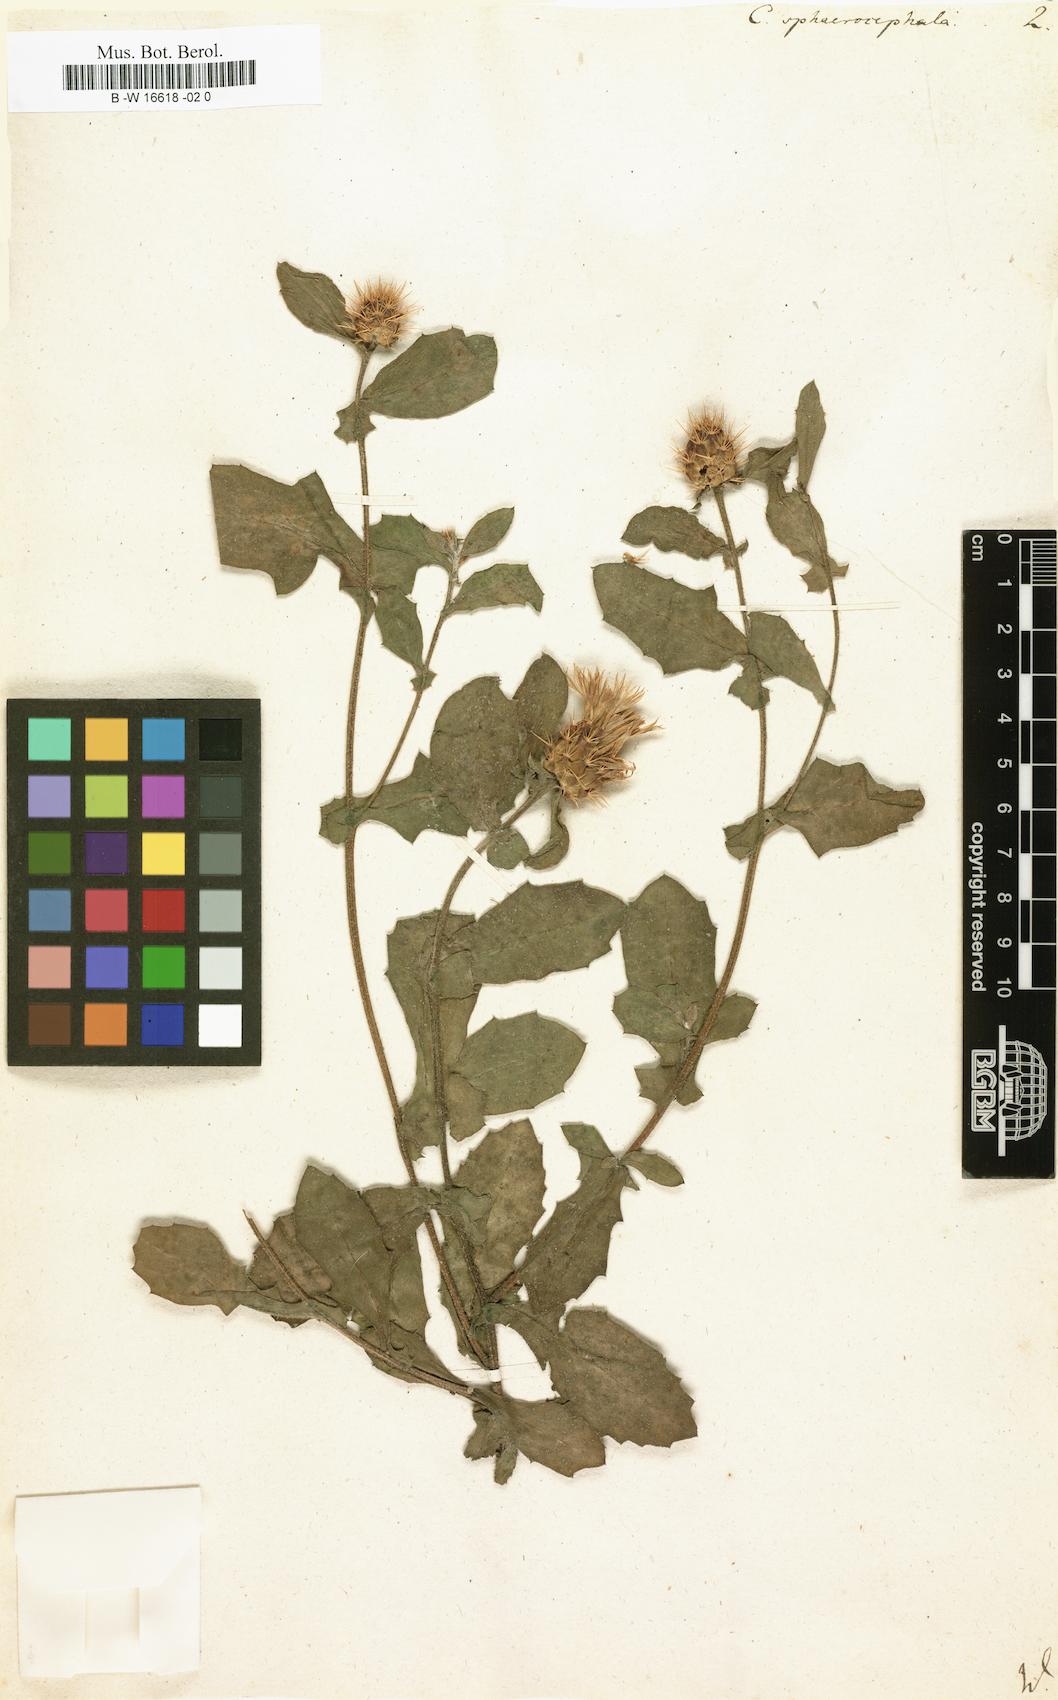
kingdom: Plantae
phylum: Tracheophyta
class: Magnoliopsida
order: Asterales
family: Asteraceae
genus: Centaurea
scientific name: Centaurea sphaerocephala
